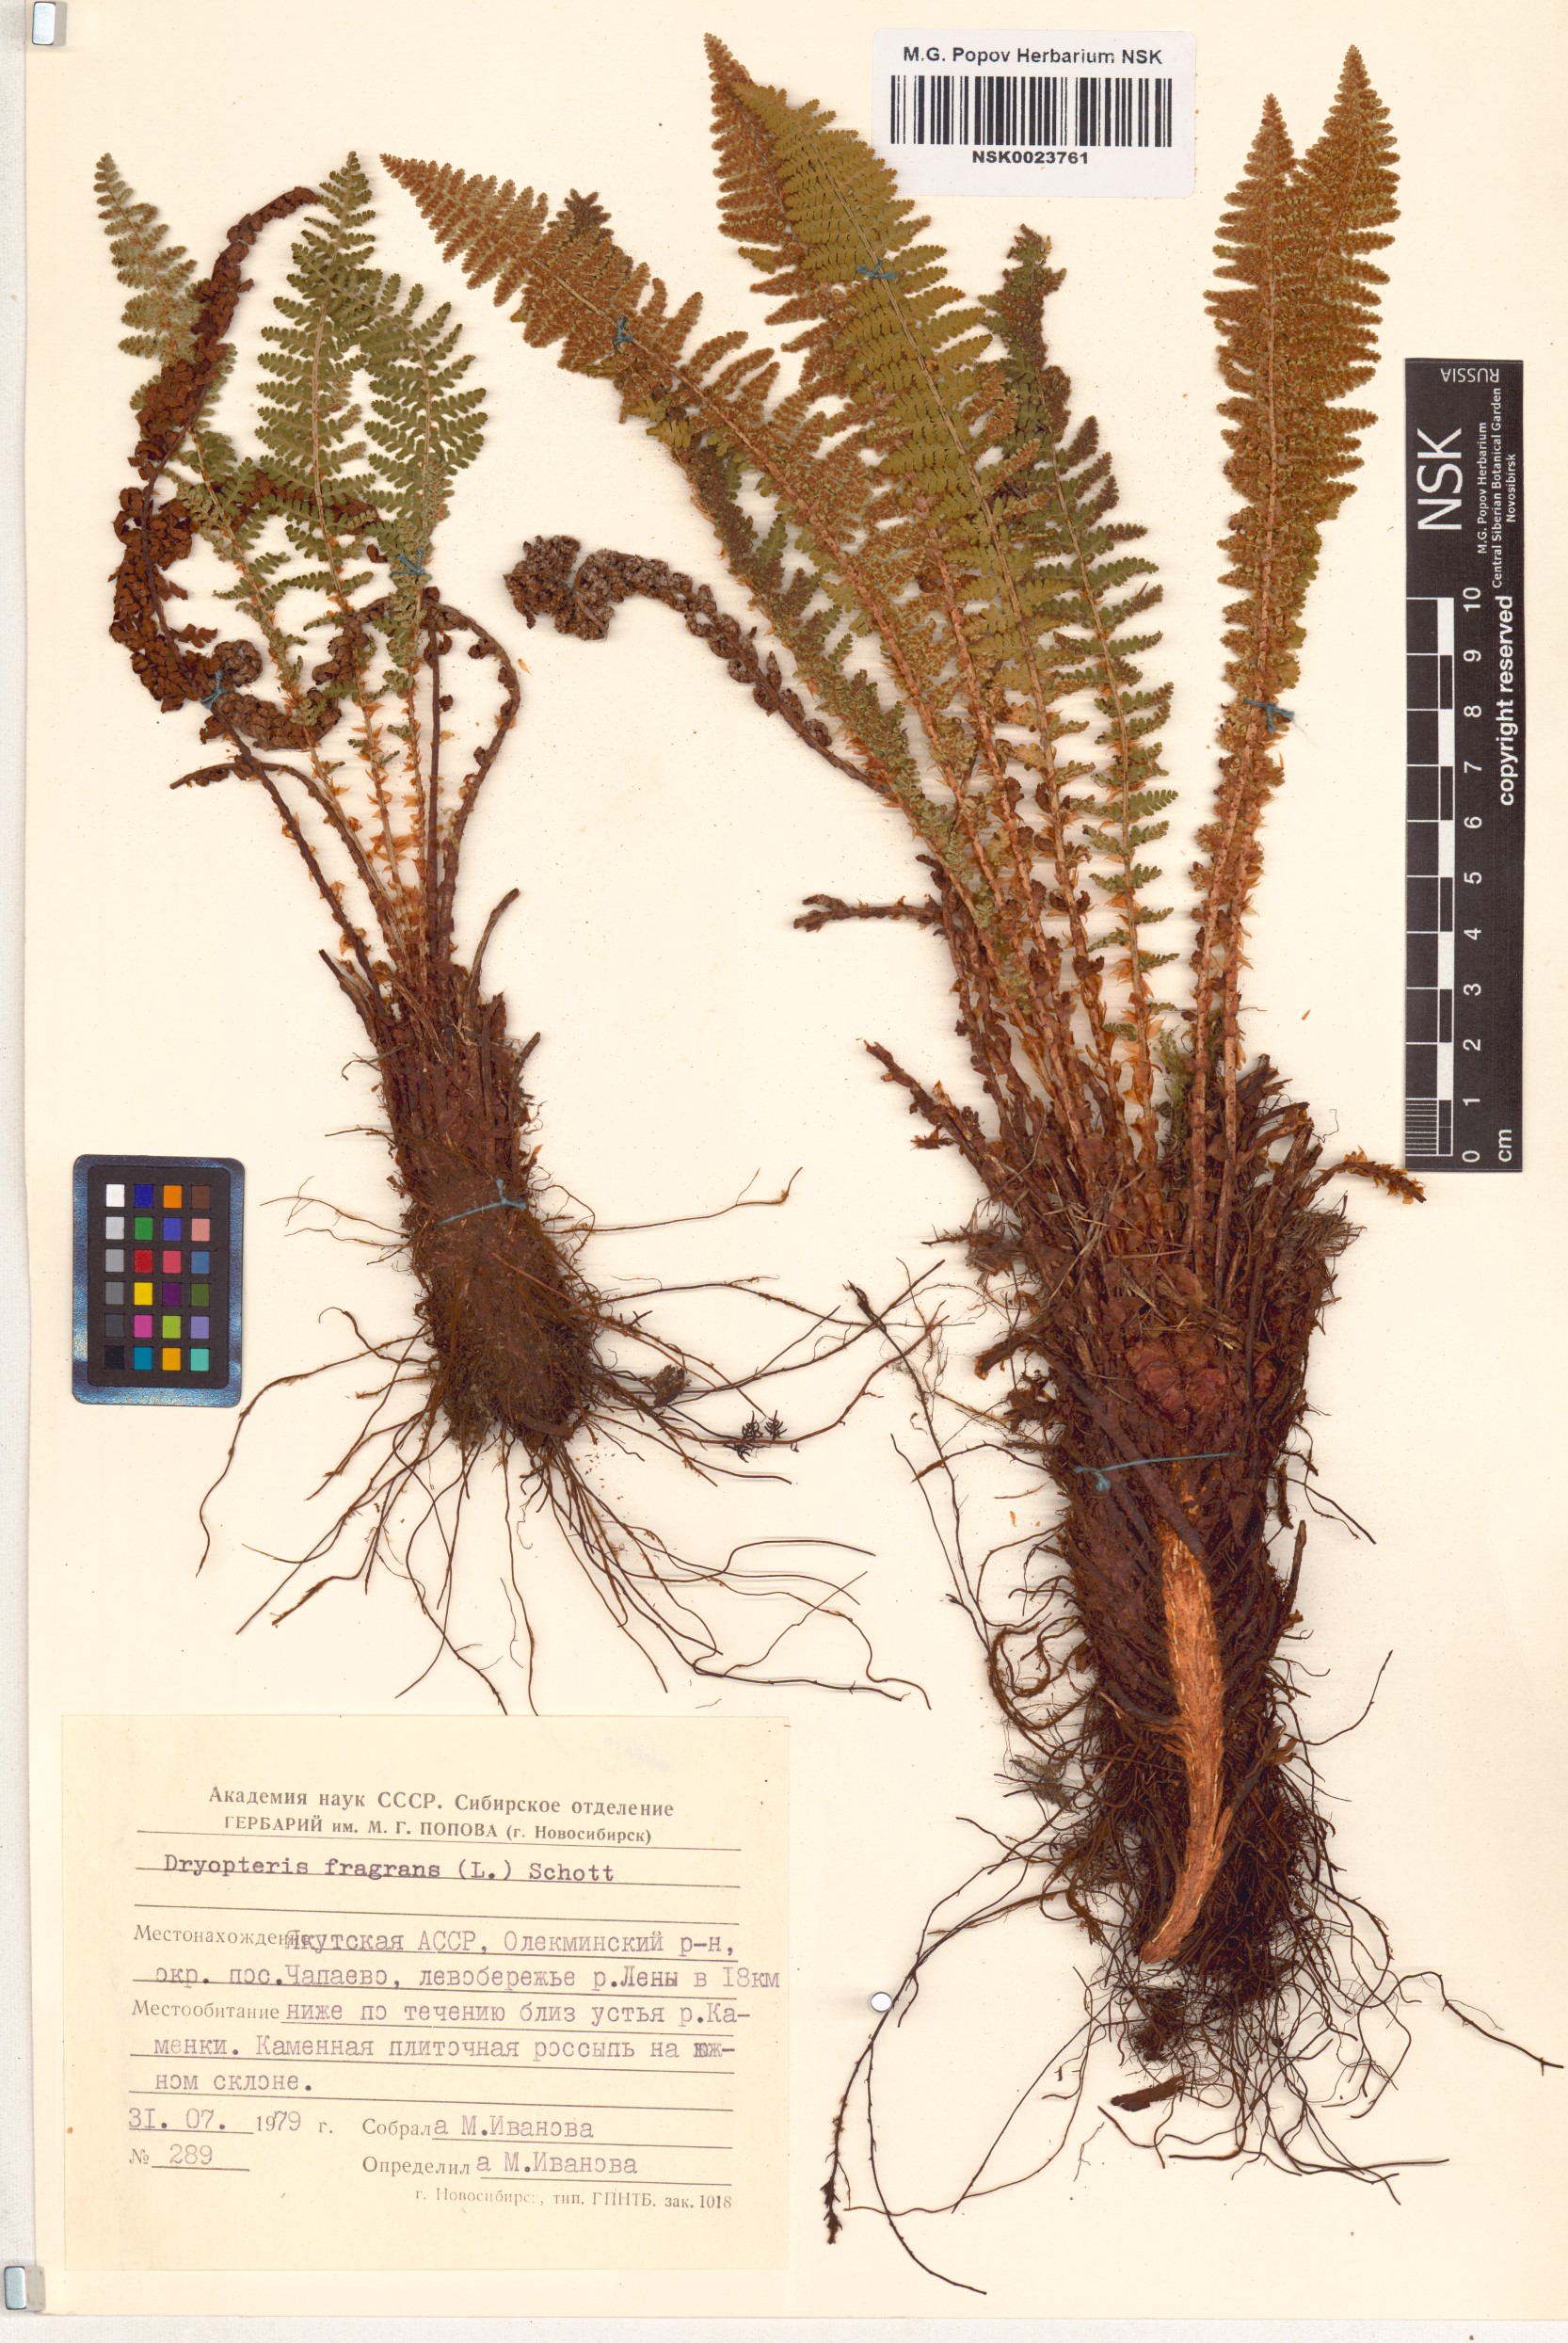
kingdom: Plantae
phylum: Tracheophyta
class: Polypodiopsida
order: Polypodiales
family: Dryopteridaceae
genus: Dryopteris
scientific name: Dryopteris fragrans
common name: Fragrant wood fern
